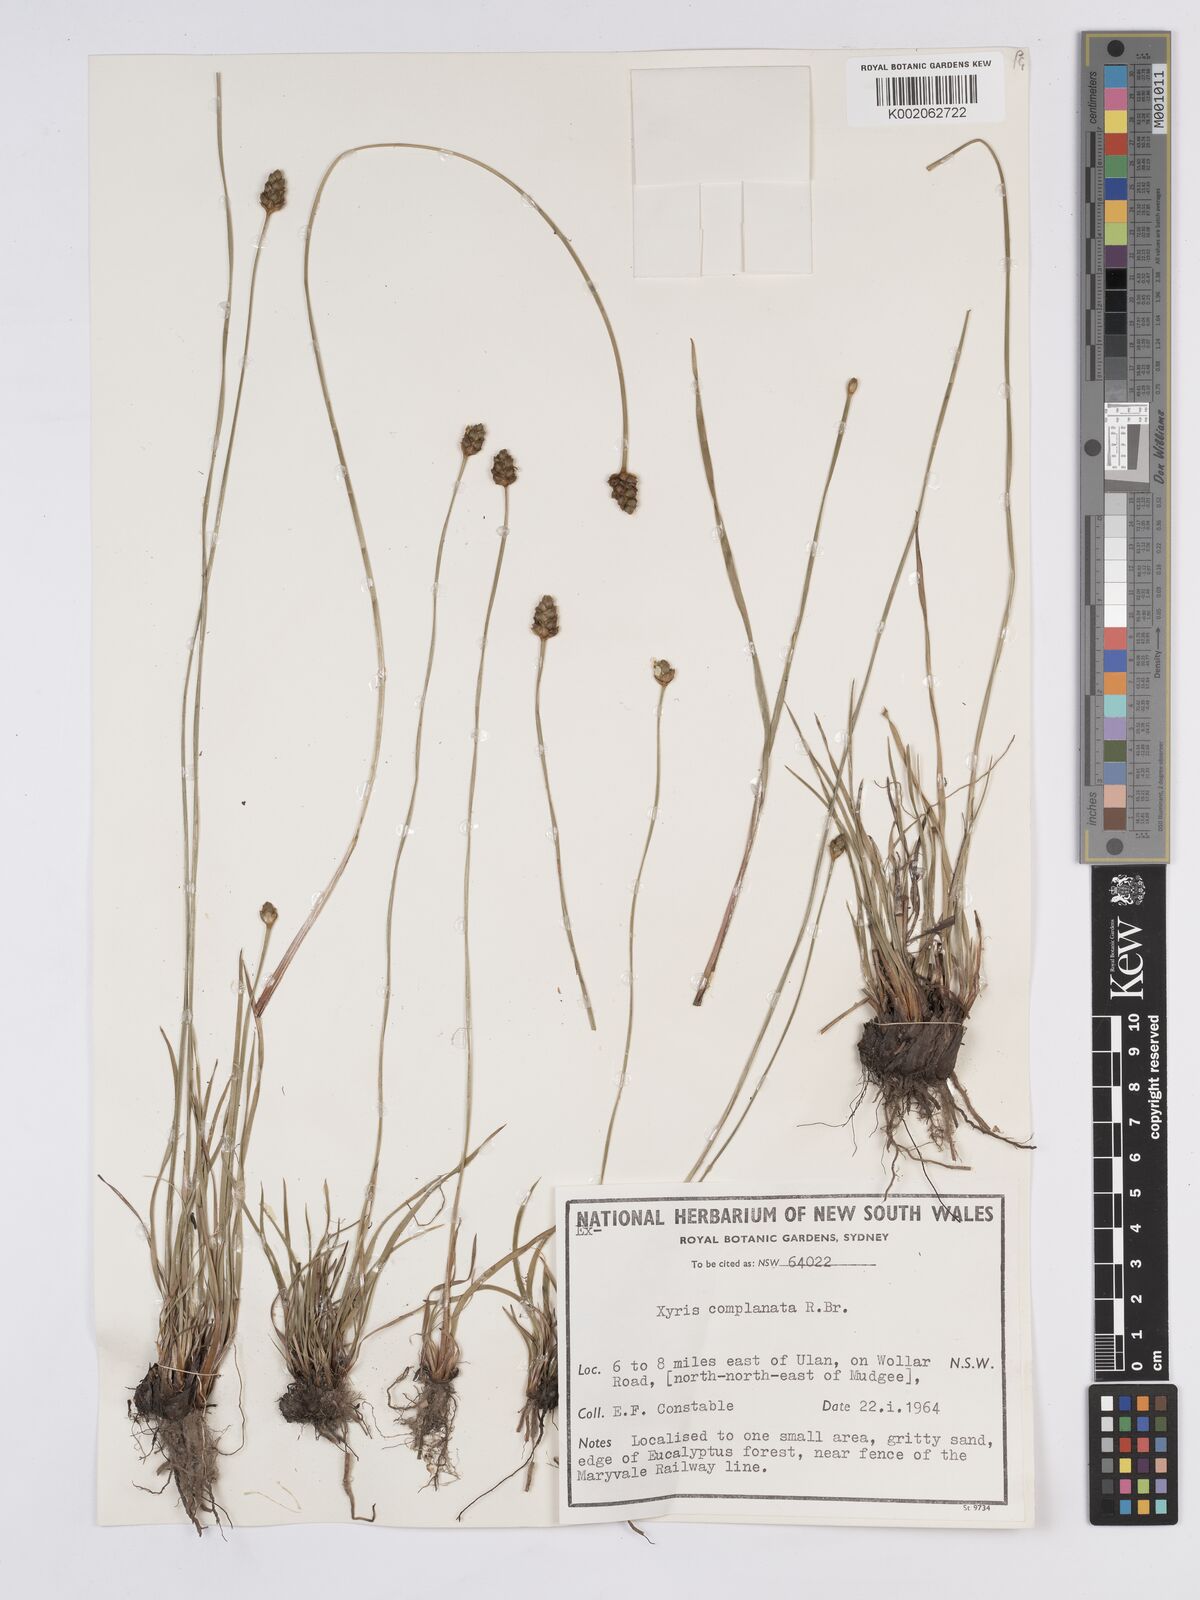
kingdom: Plantae
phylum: Tracheophyta
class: Liliopsida
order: Poales
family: Xyridaceae
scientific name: Xyridaceae
